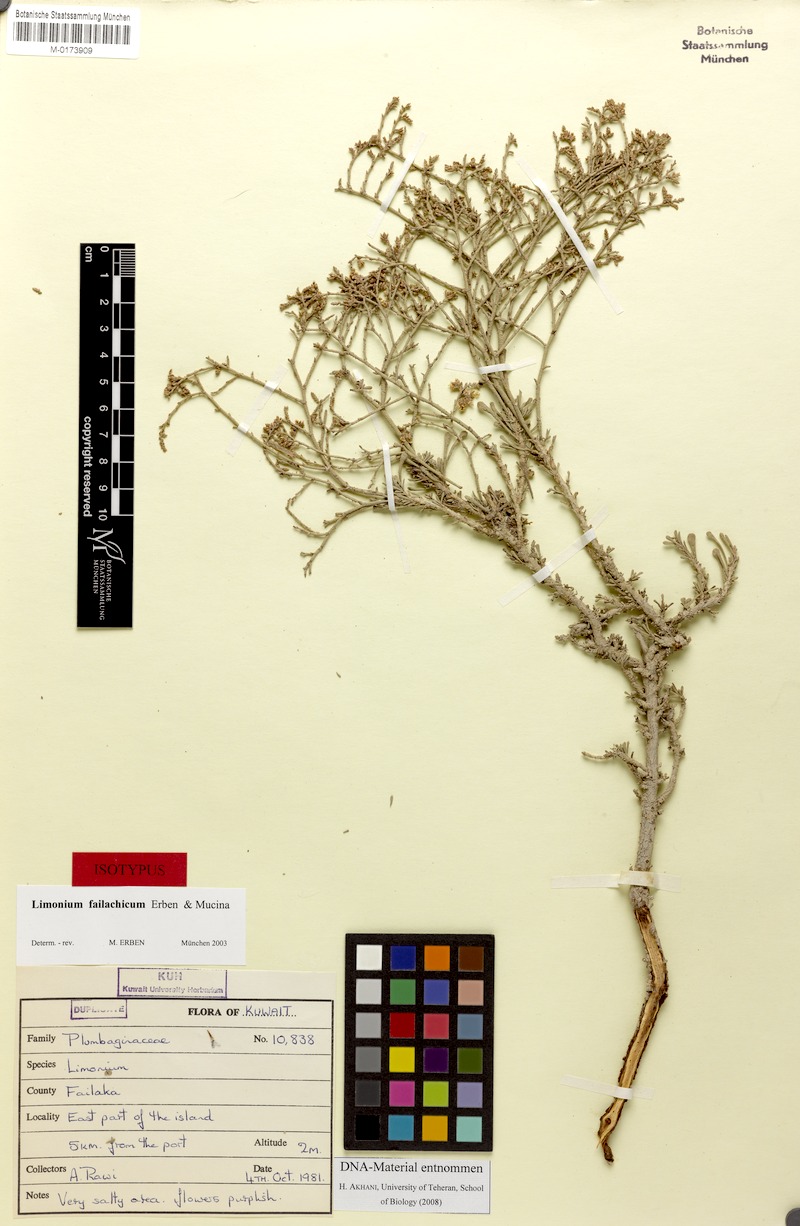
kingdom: Plantae
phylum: Tracheophyta
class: Magnoliopsida
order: Caryophyllales
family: Plumbaginaceae
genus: Limonium
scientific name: Limonium failachicum
